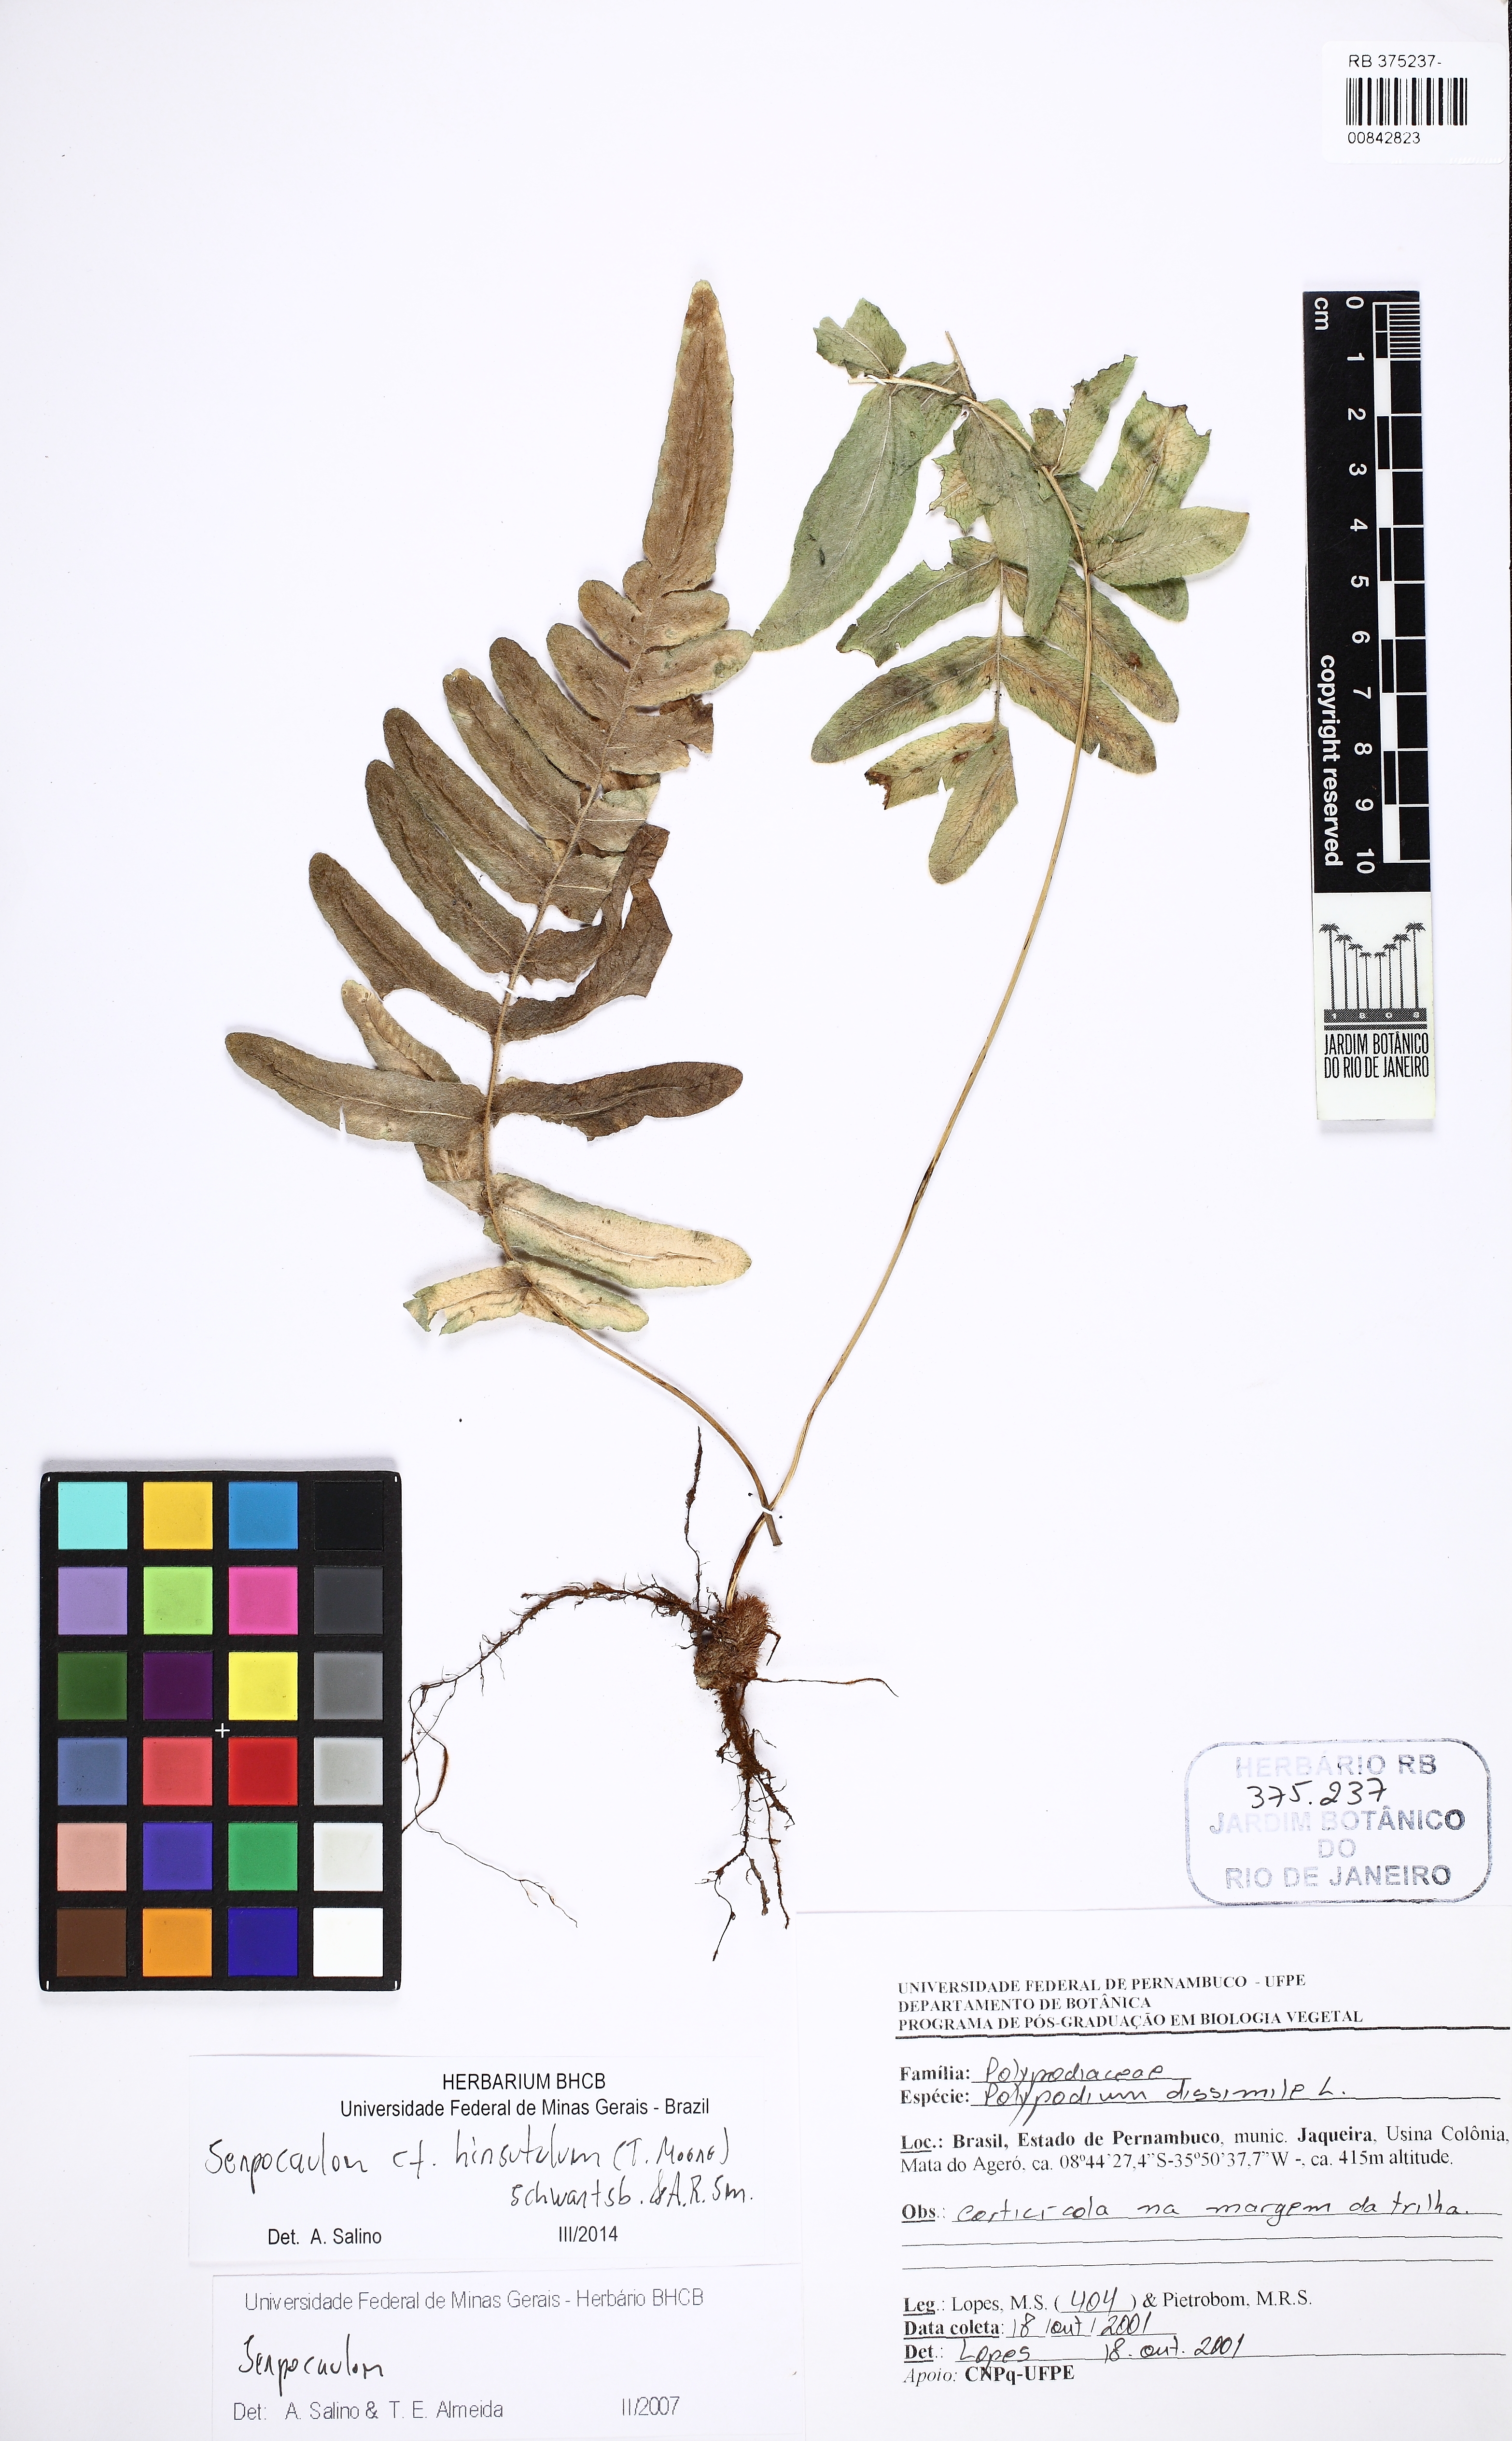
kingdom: Plantae
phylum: Tracheophyta
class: Polypodiopsida
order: Polypodiales
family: Polypodiaceae
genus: Serpocaulon
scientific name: Serpocaulon dissimile
